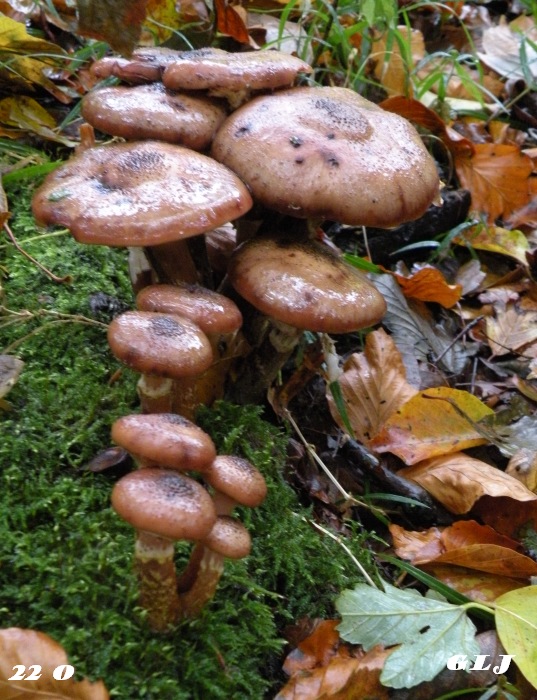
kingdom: Fungi
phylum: Basidiomycota
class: Agaricomycetes
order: Agaricales
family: Physalacriaceae
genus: Armillaria
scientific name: Armillaria lutea
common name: køllestokket honningsvamp
